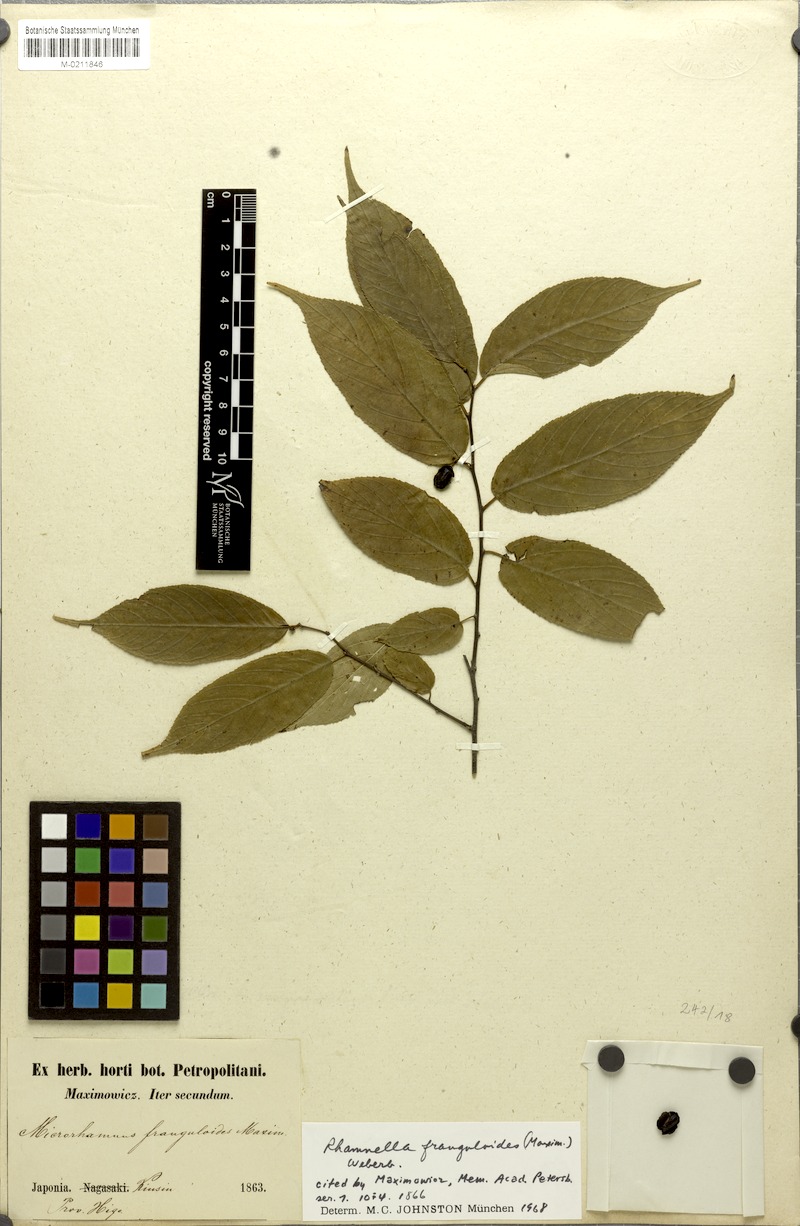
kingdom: Plantae
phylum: Tracheophyta
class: Magnoliopsida
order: Rosales
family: Rhamnaceae
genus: Rhamnella
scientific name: Rhamnella franguloides
